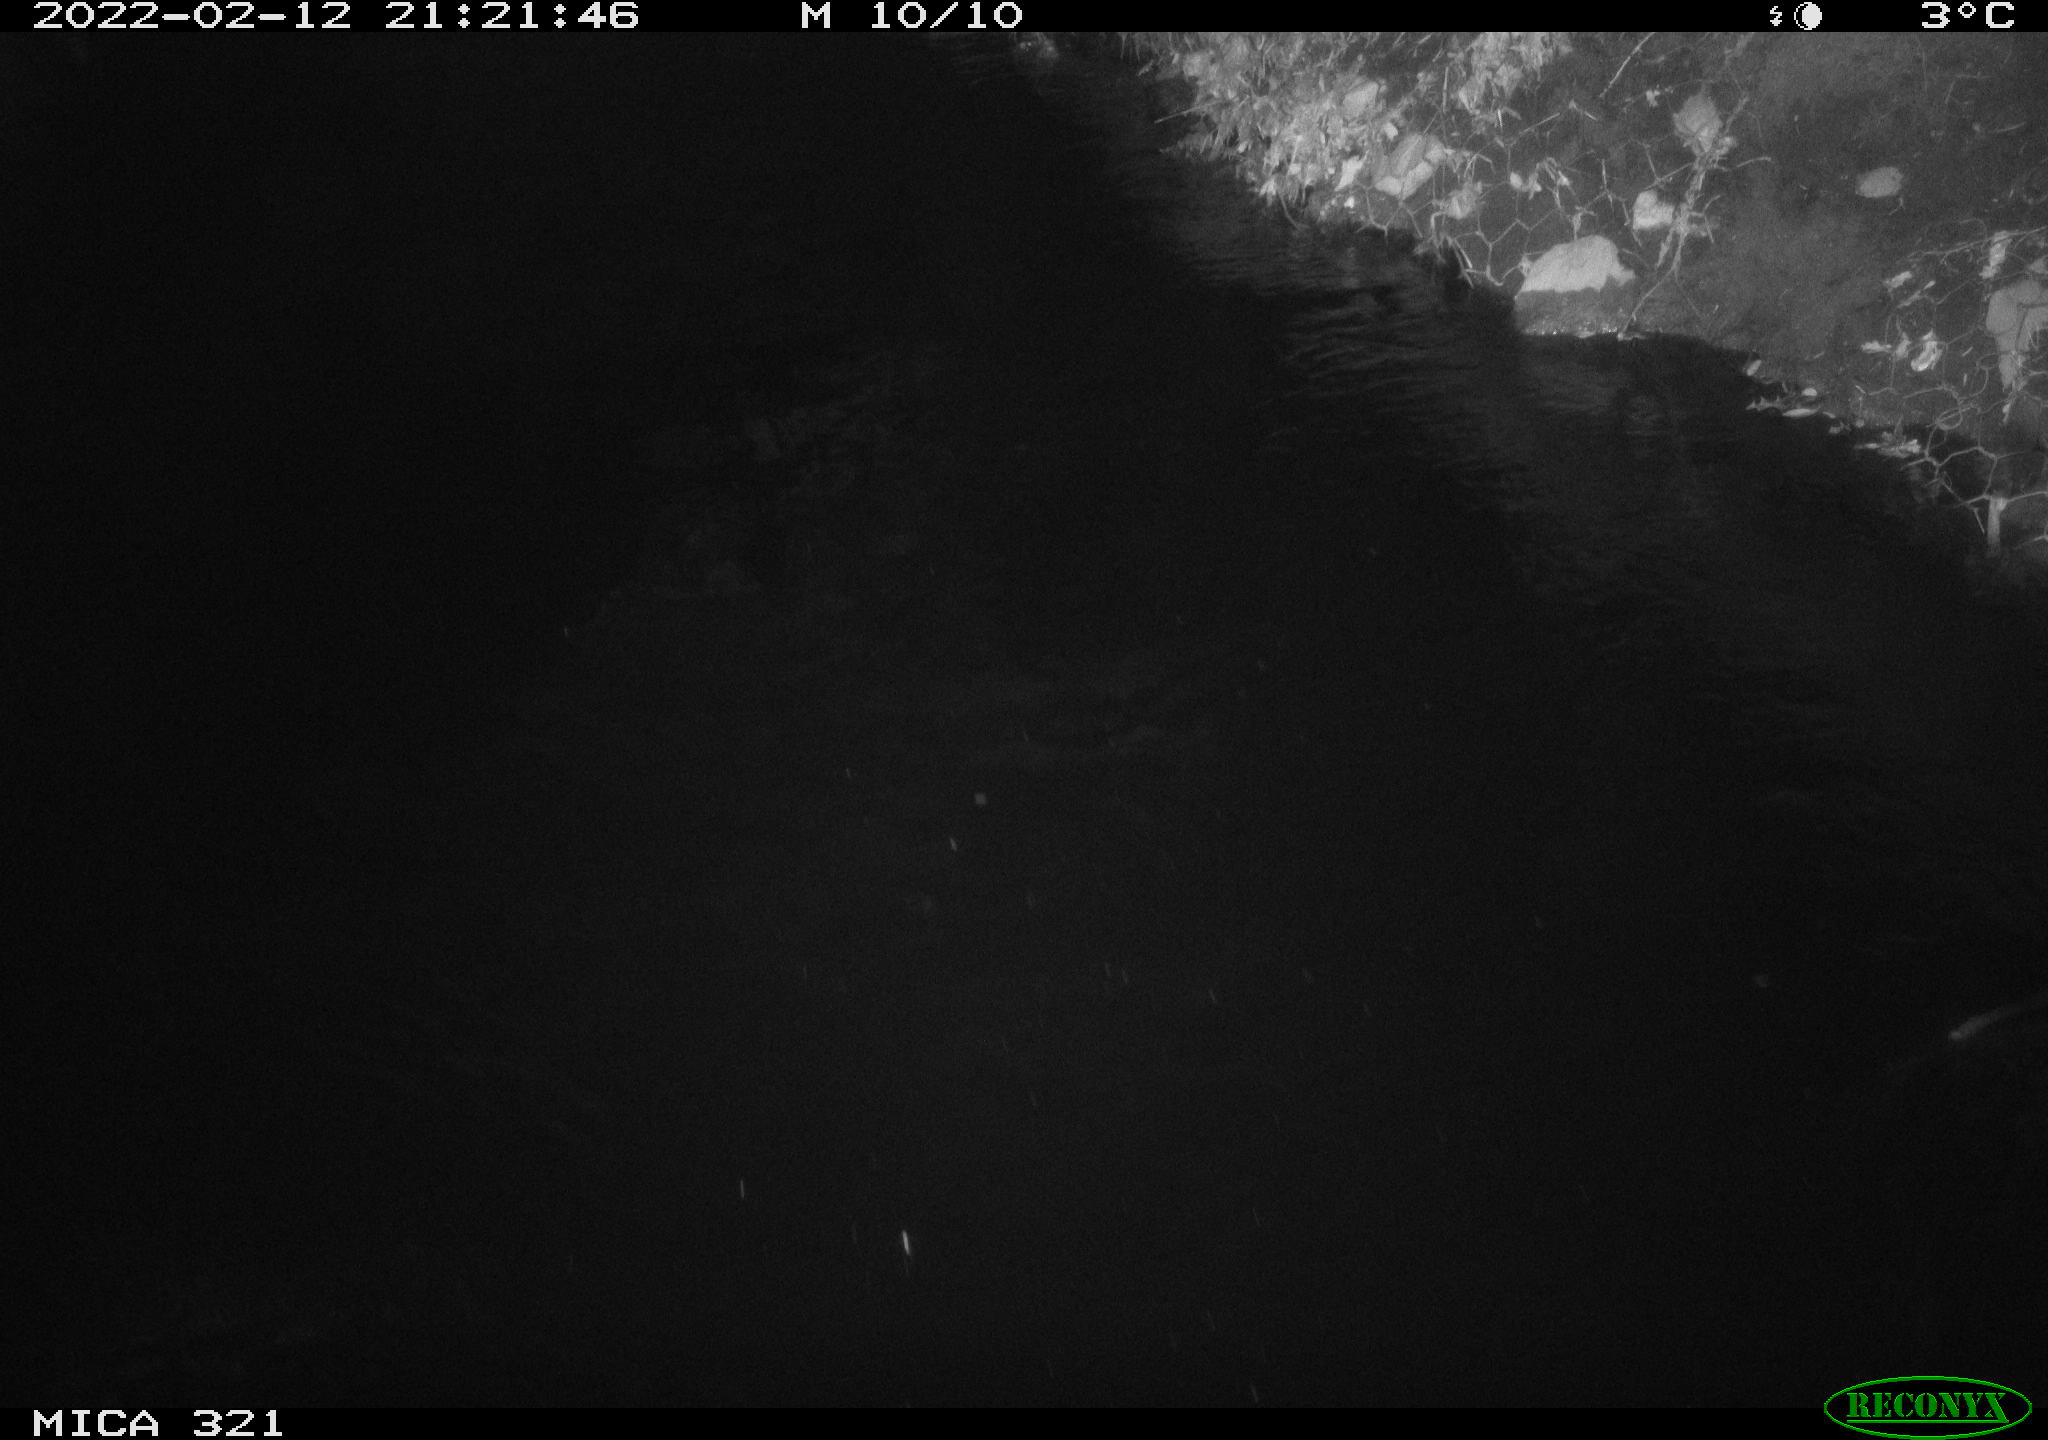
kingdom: Animalia
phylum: Chordata
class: Aves
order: Anseriformes
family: Anatidae
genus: Anas
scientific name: Anas platyrhynchos
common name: Mallard
